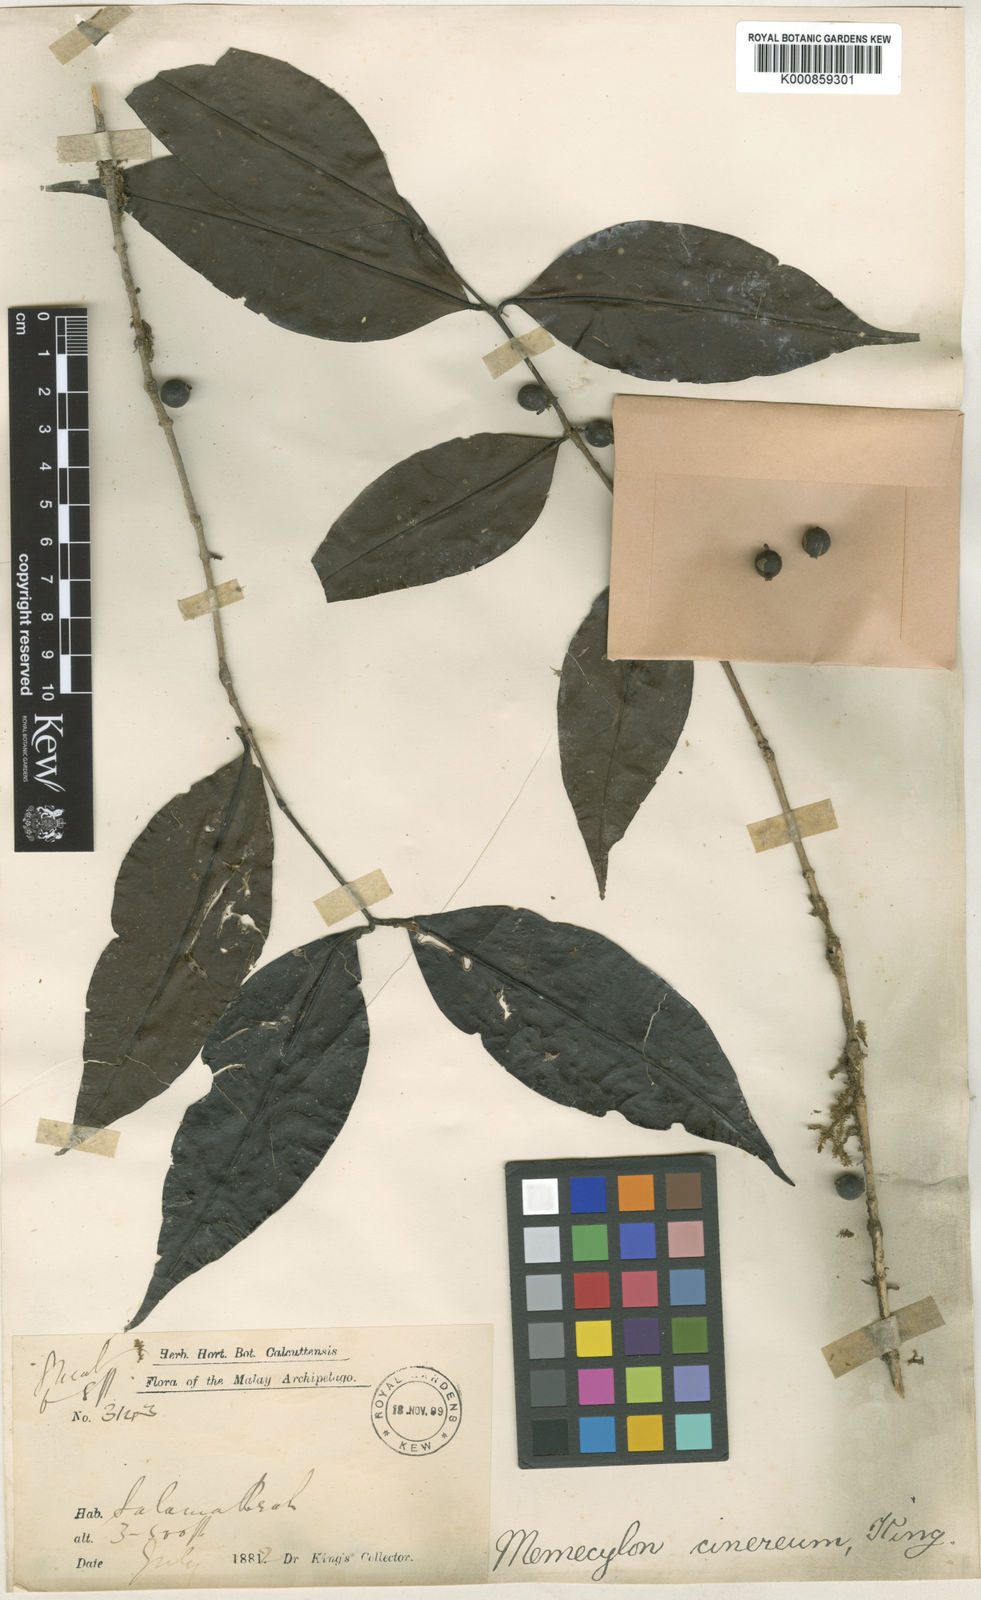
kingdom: Plantae
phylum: Tracheophyta
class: Magnoliopsida
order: Myrtales
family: Melastomataceae
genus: Memecylon
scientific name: Memecylon cinereum
